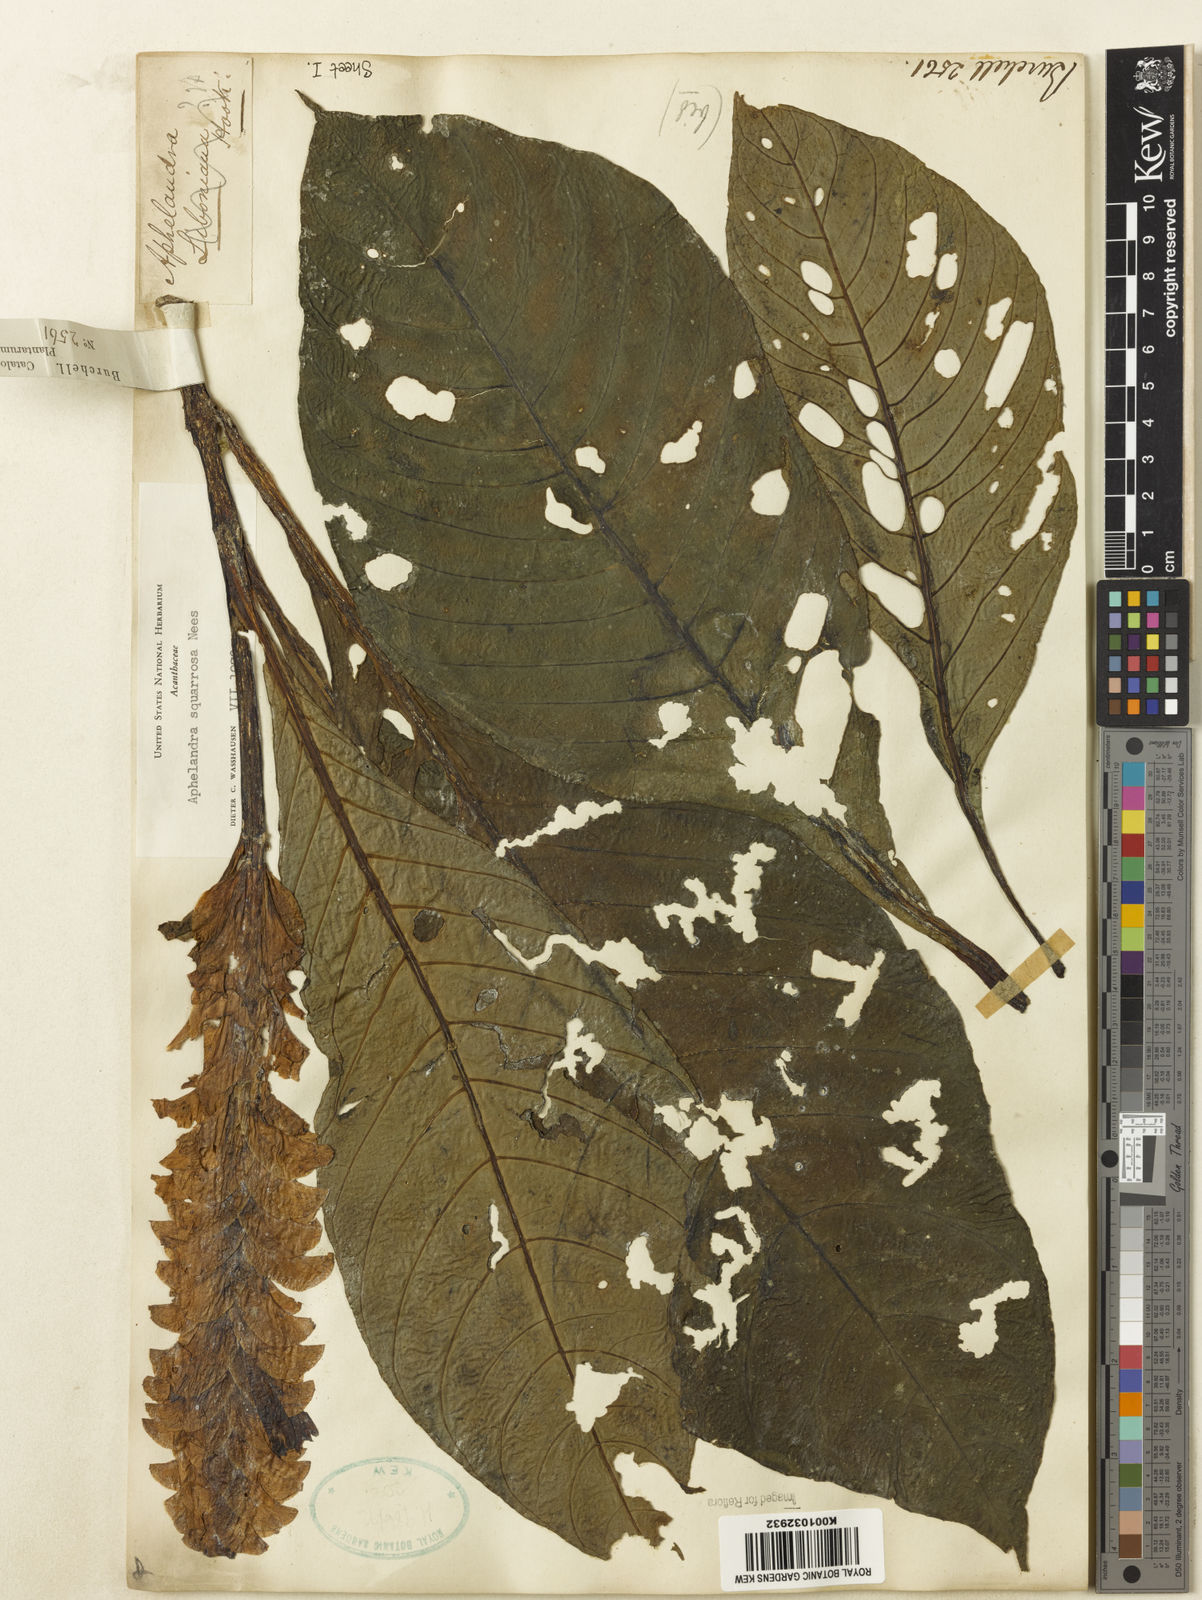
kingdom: Plantae
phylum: Tracheophyta
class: Magnoliopsida
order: Lamiales
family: Acanthaceae
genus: Aphelandra
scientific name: Aphelandra squarrosa
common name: Saffron spike
